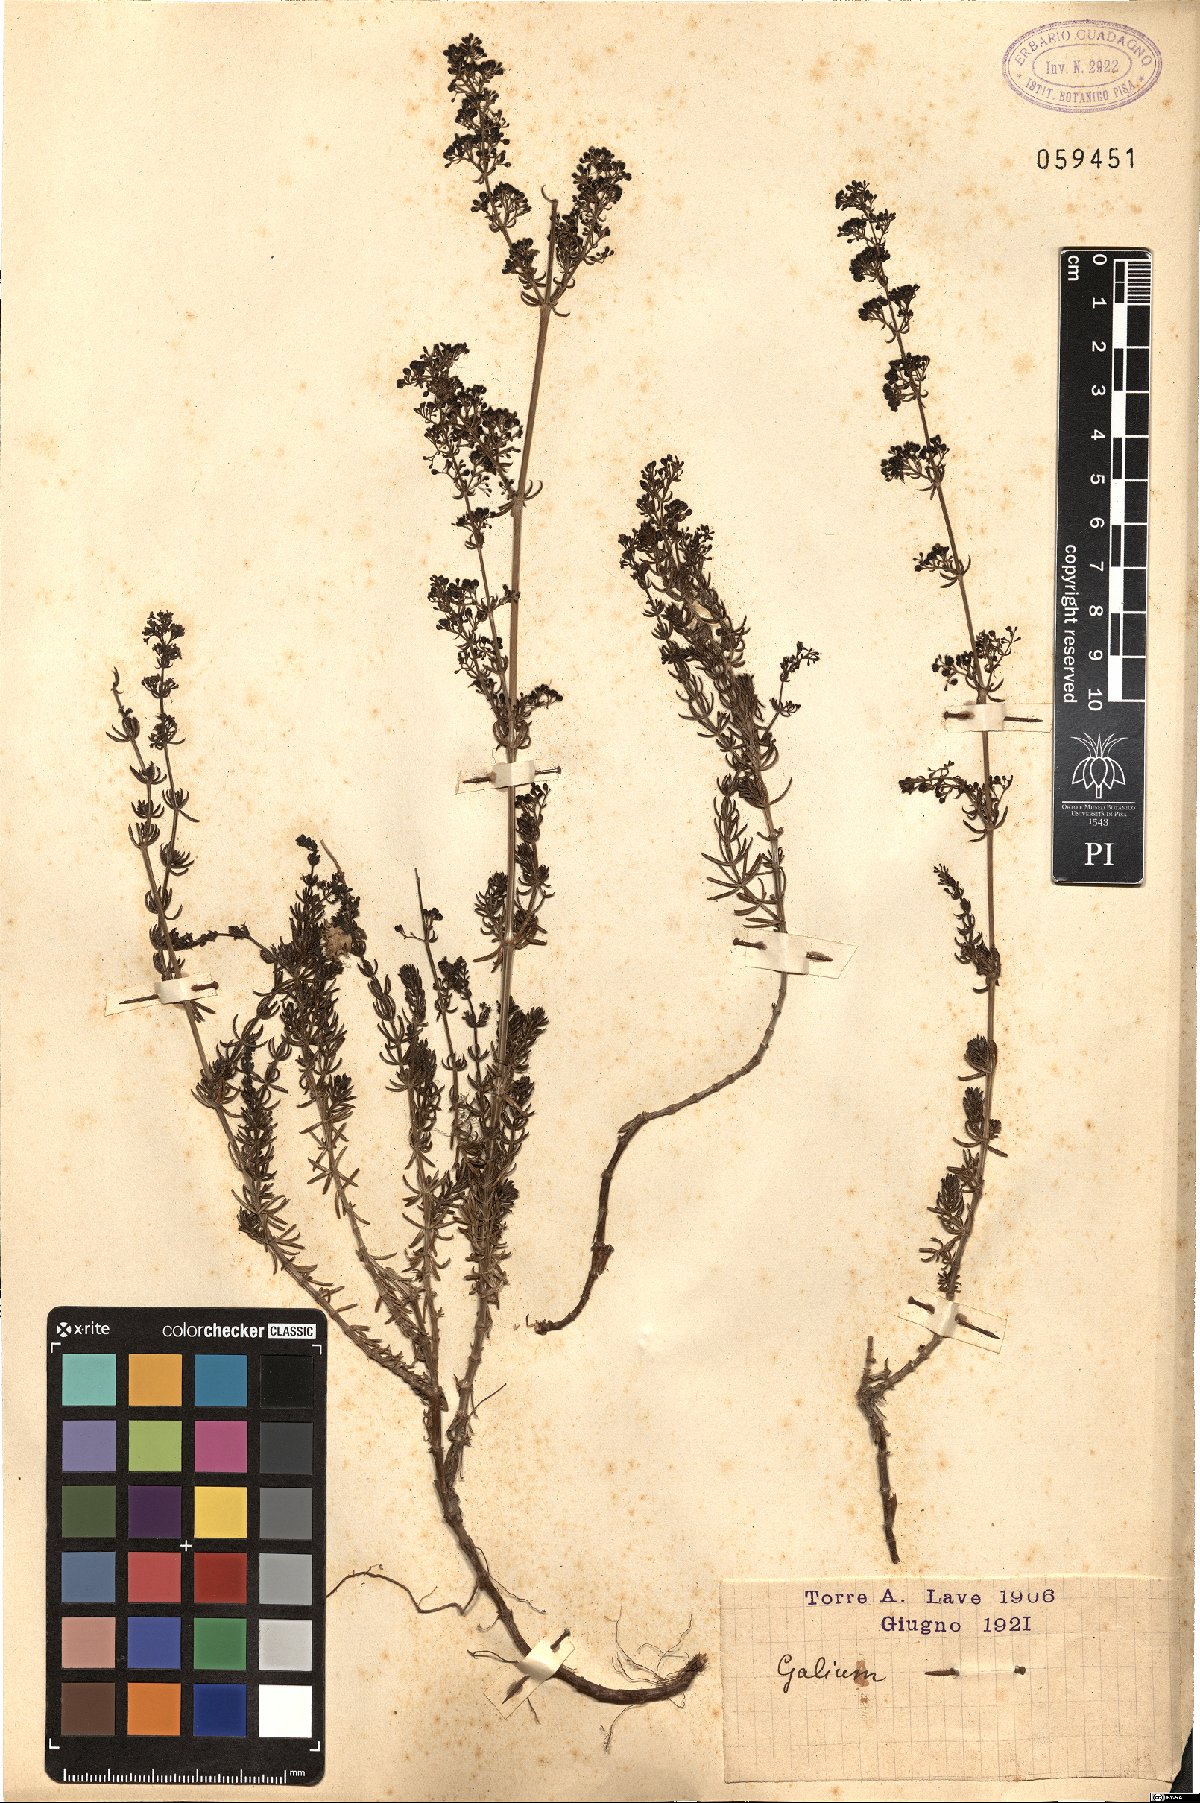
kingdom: Plantae
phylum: Tracheophyta
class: Magnoliopsida
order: Gentianales
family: Rubiaceae
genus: Galium
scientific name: Galium
